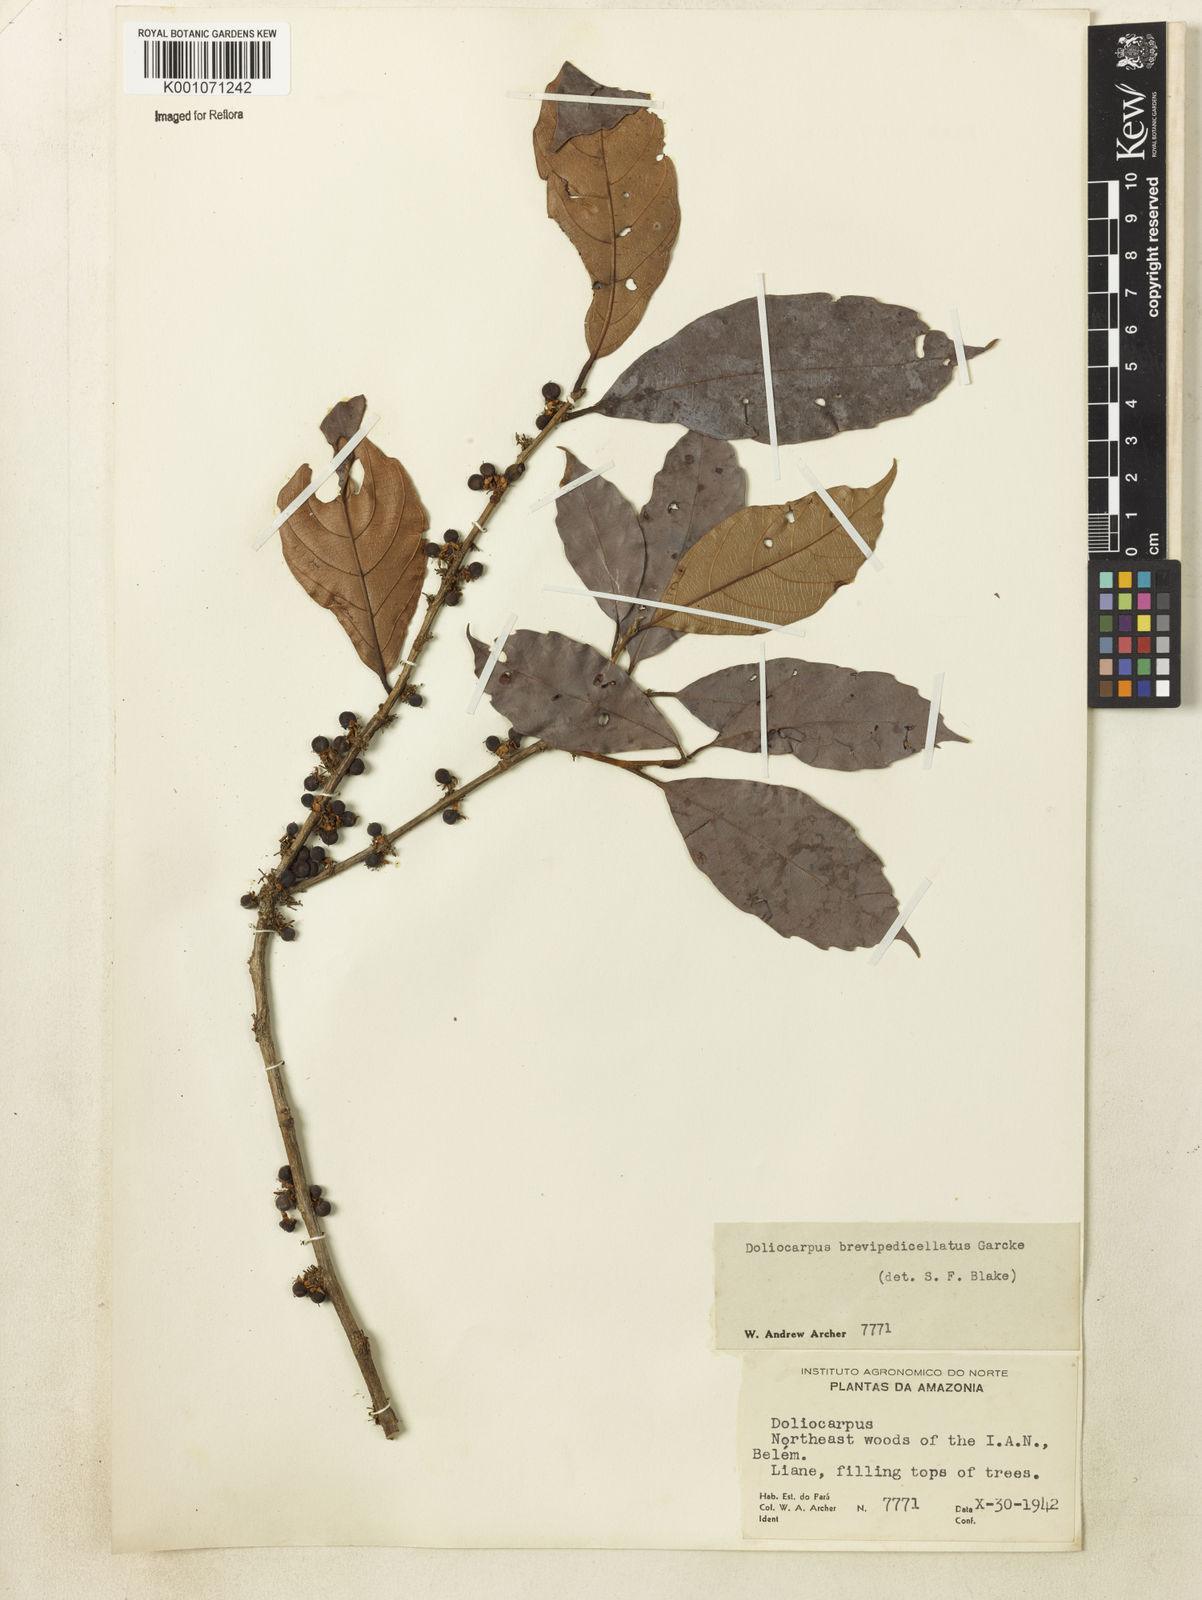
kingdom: Plantae
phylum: Tracheophyta
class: Magnoliopsida
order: Dilleniales
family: Dilleniaceae
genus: Doliocarpus
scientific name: Doliocarpus brevipedicellatus
